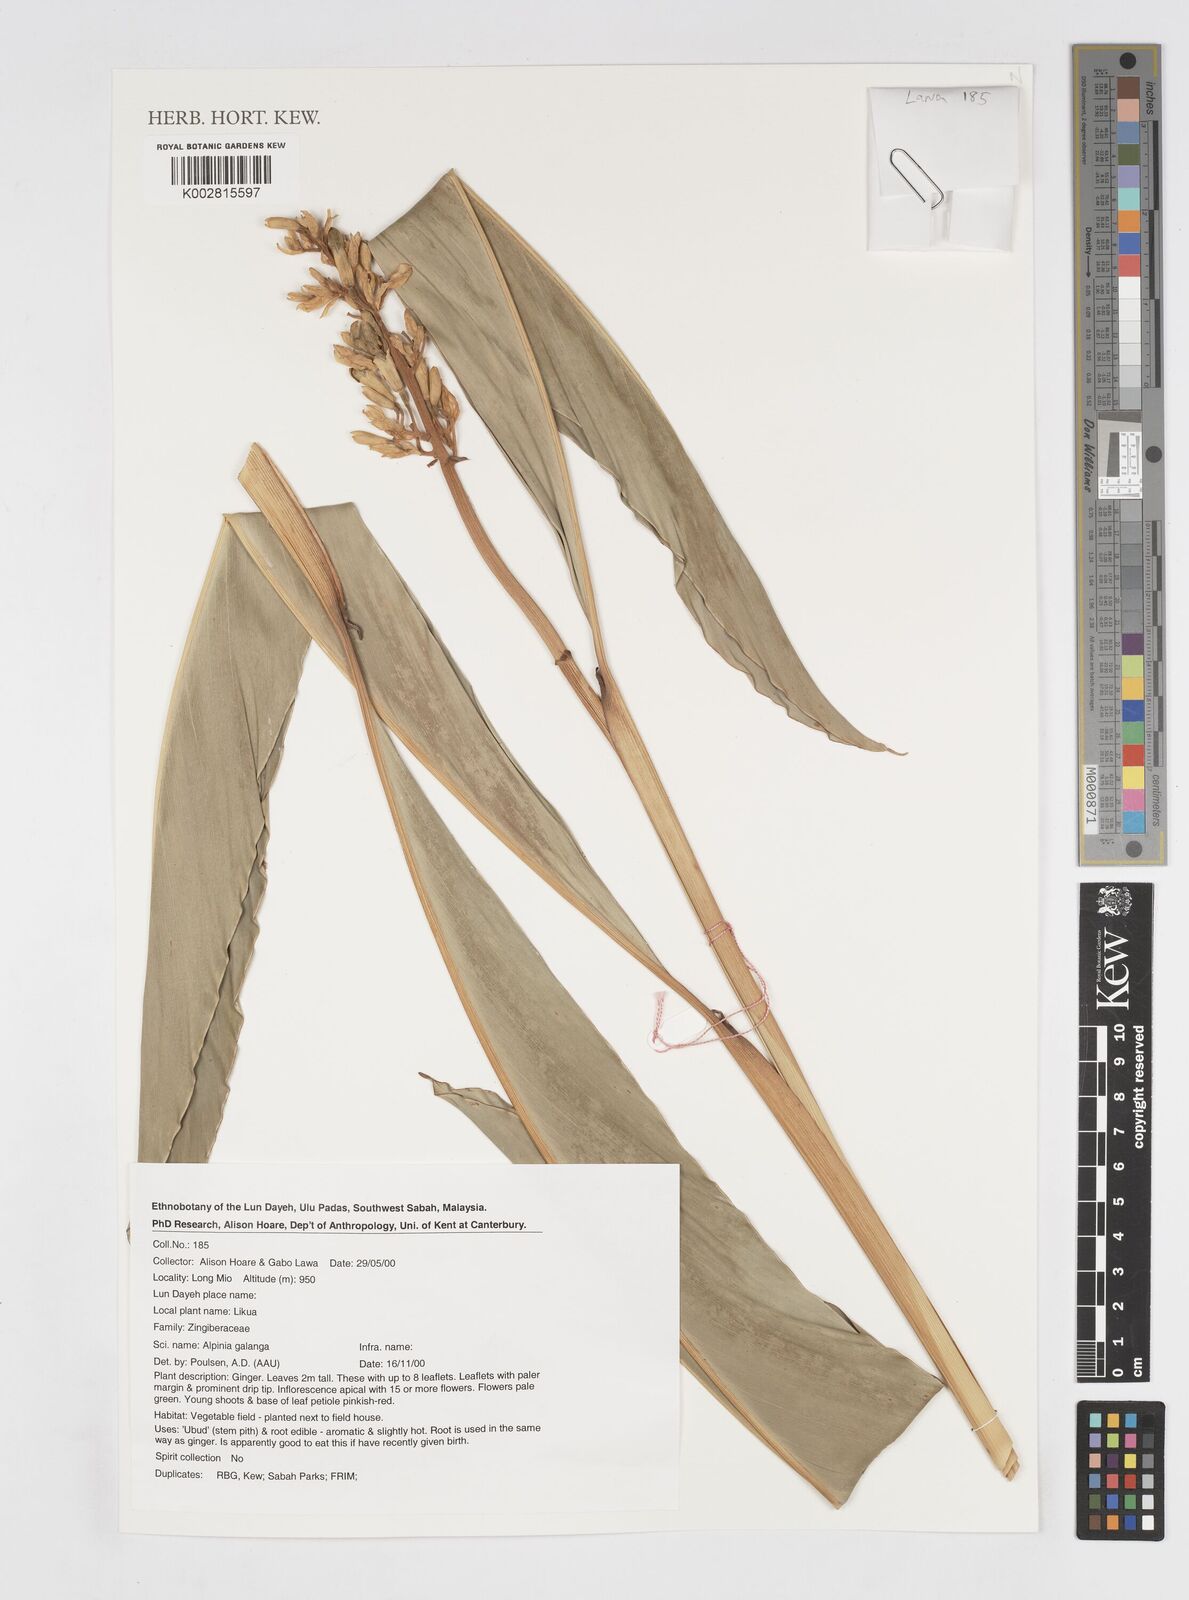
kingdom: Plantae
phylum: Tracheophyta
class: Liliopsida
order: Zingiberales
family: Zingiberaceae
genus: Alpinia
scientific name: Alpinia galanga
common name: Siamese-ginger
